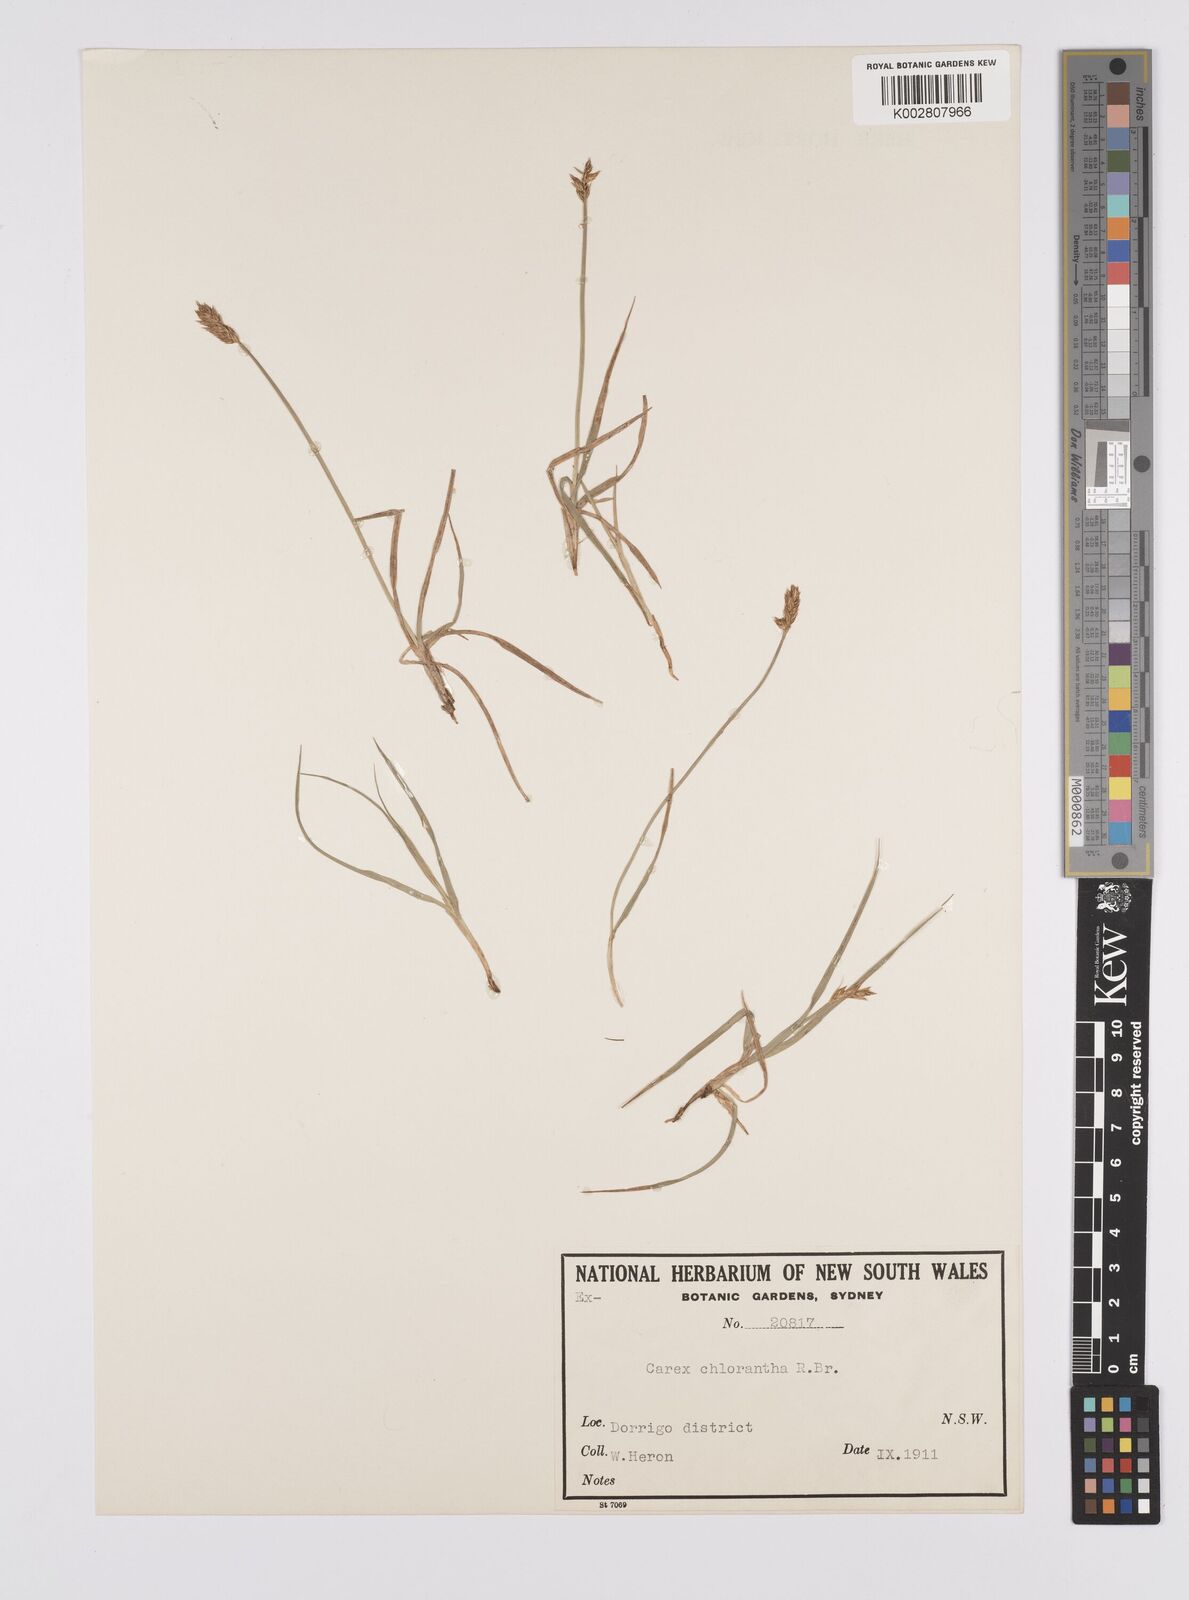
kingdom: Plantae
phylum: Tracheophyta
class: Liliopsida
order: Poales
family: Cyperaceae
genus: Carex
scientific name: Carex chlorantha
